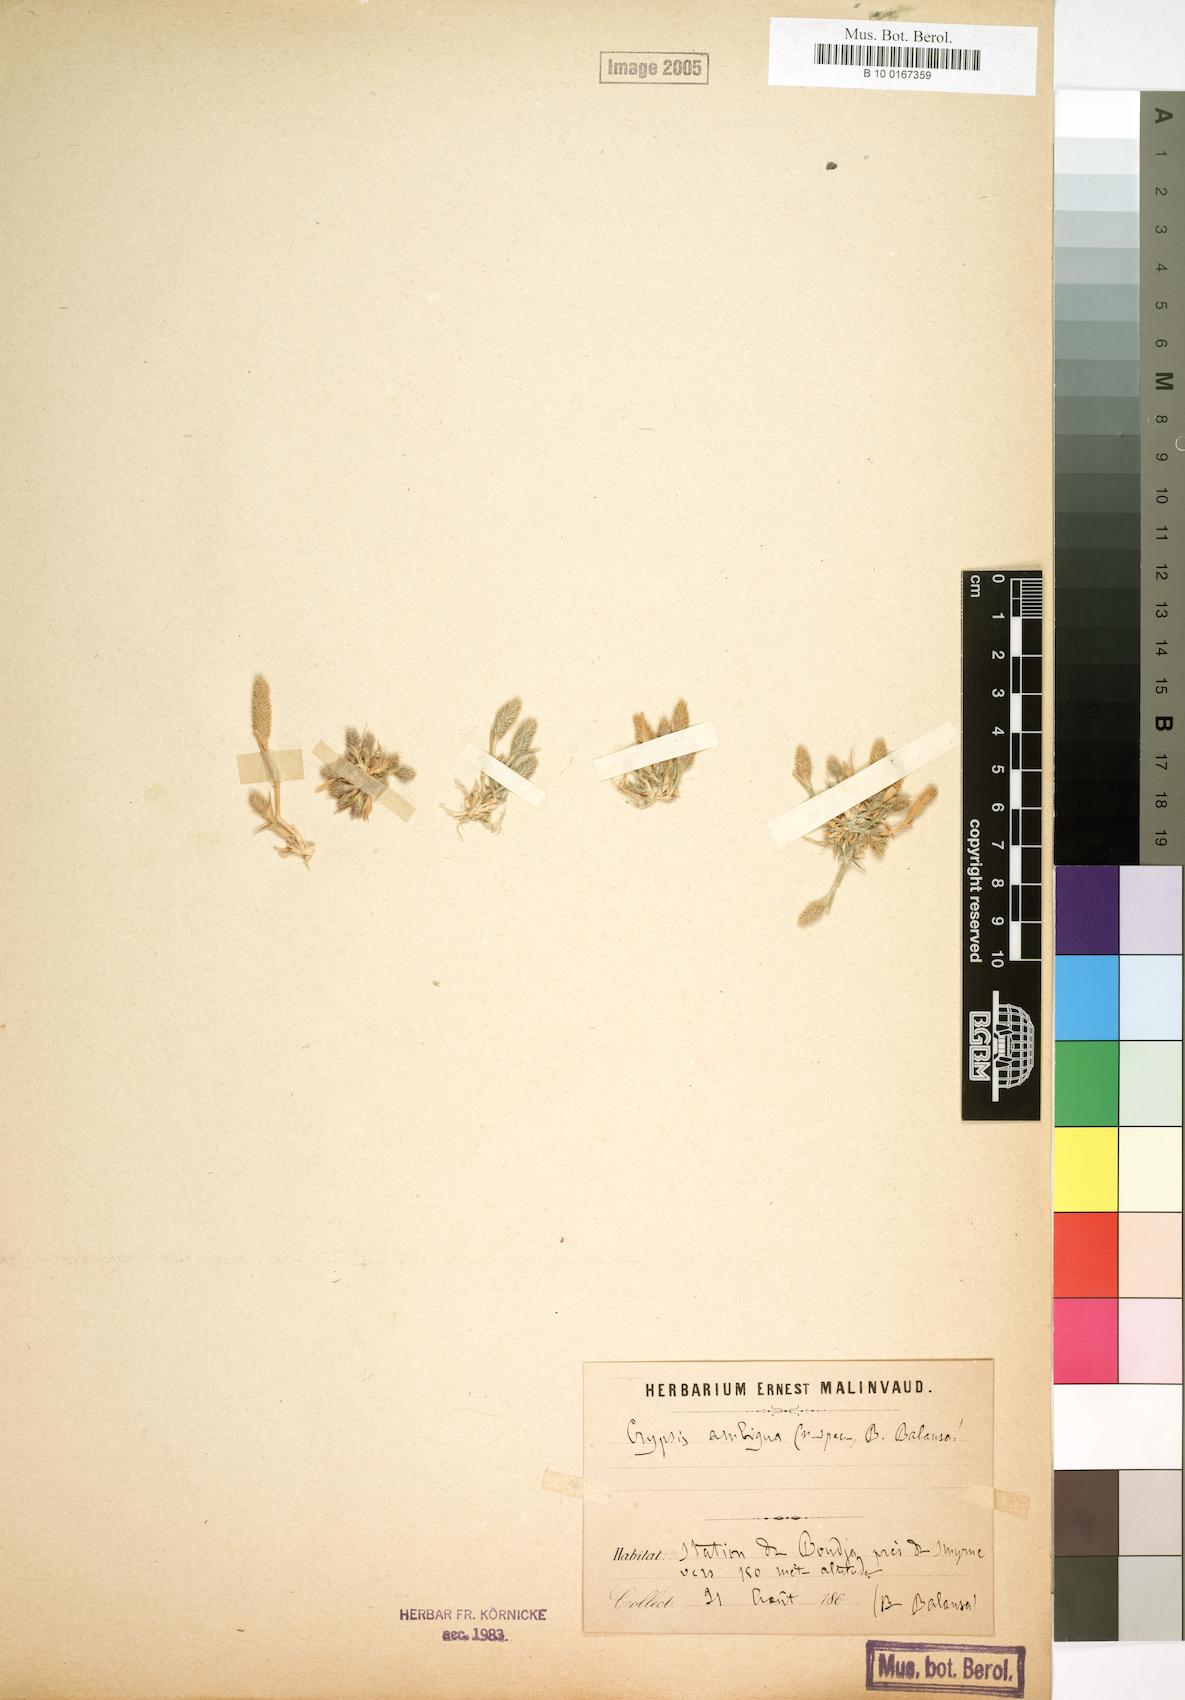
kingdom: Plantae
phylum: Tracheophyta
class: Liliopsida
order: Poales
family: Poaceae
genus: Sporobolus
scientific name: Sporobolus borszczowii
